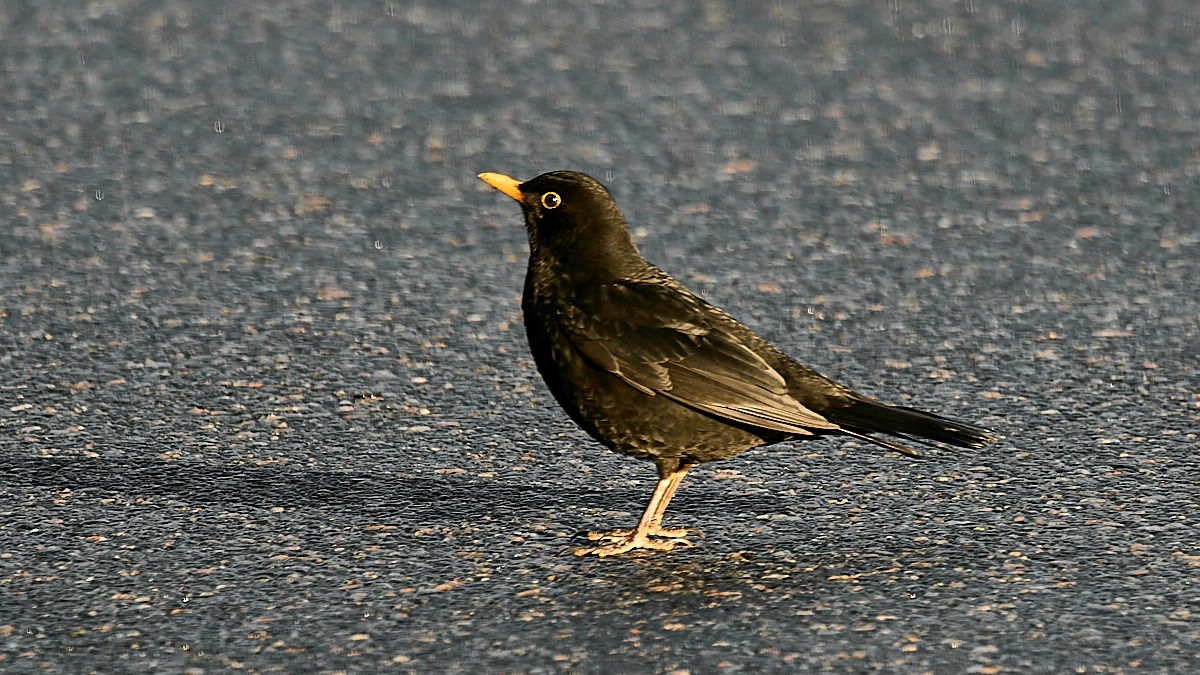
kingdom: Animalia
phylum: Chordata
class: Aves
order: Passeriformes
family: Turdidae
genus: Turdus
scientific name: Turdus merula
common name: Solsort
